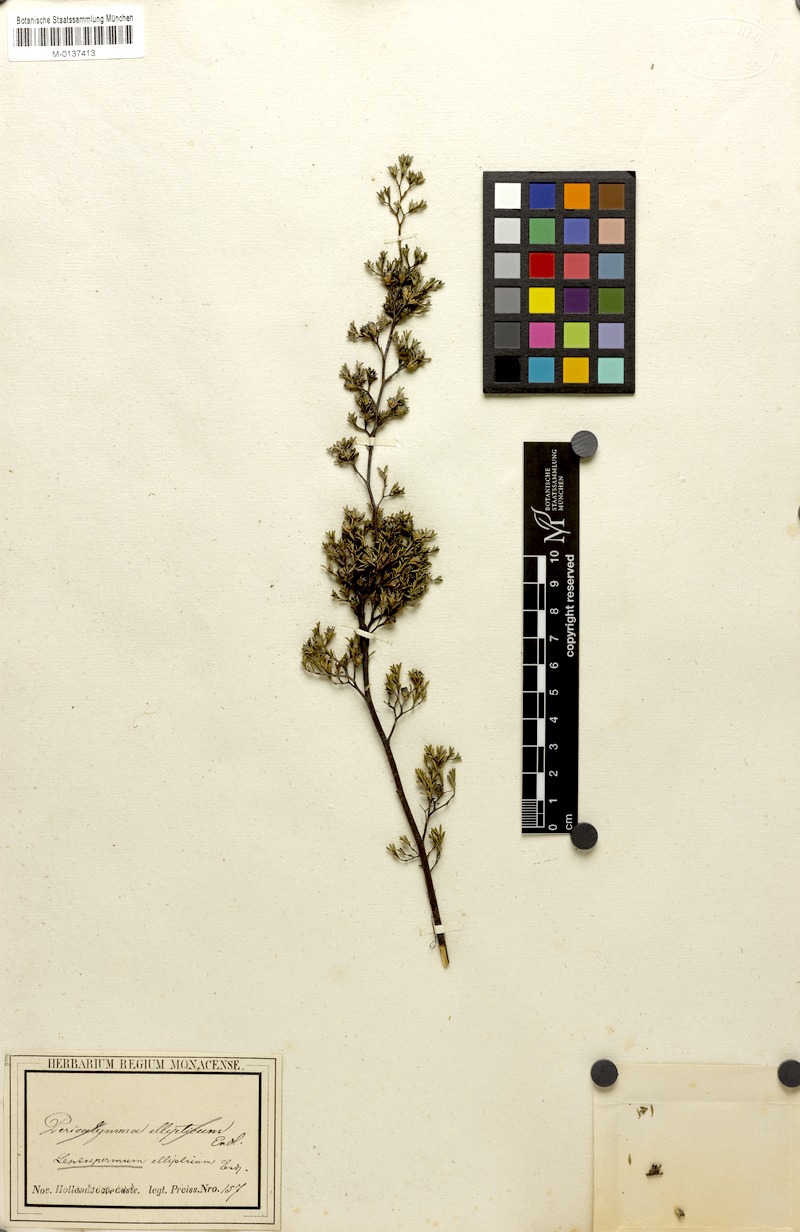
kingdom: Plantae
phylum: Tracheophyta
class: Magnoliopsida
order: Myrtales
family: Myrtaceae
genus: Pericalymma
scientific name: Pericalymma ellipticum
